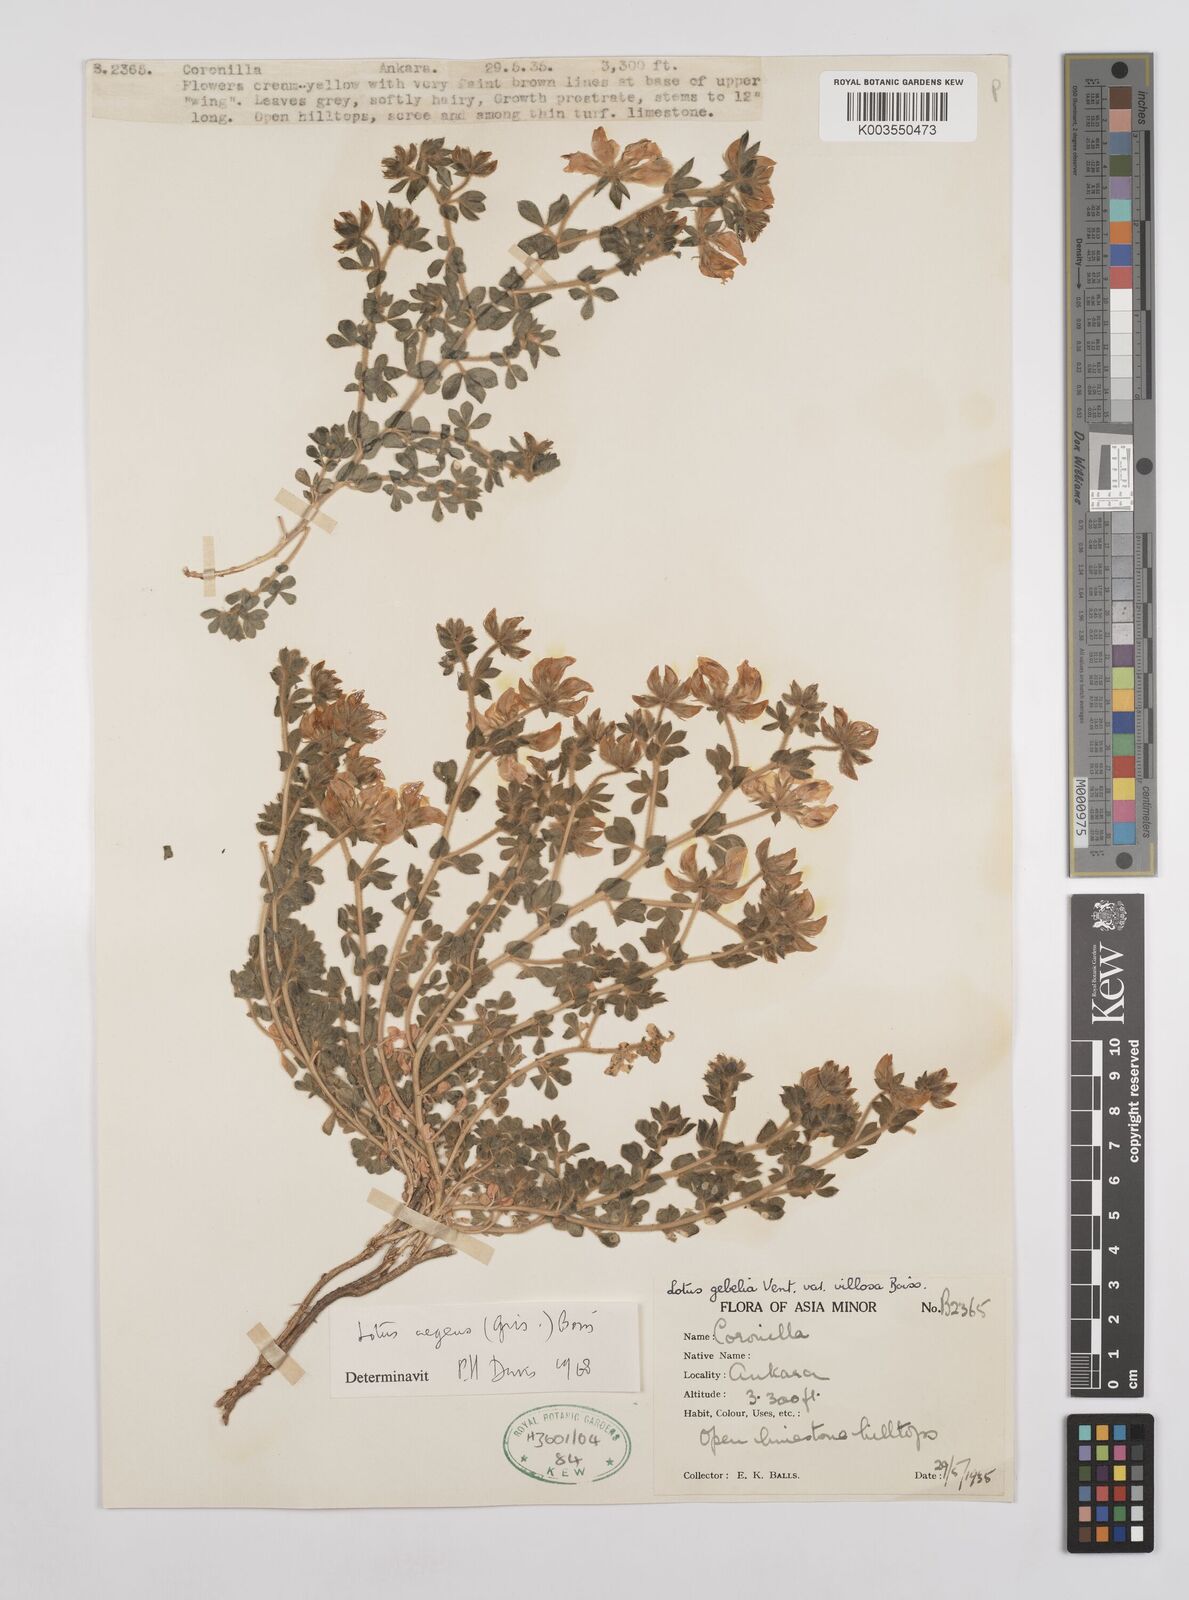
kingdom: Plantae
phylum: Tracheophyta
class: Magnoliopsida
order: Fabales
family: Fabaceae
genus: Lotus
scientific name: Lotus aegaeus
